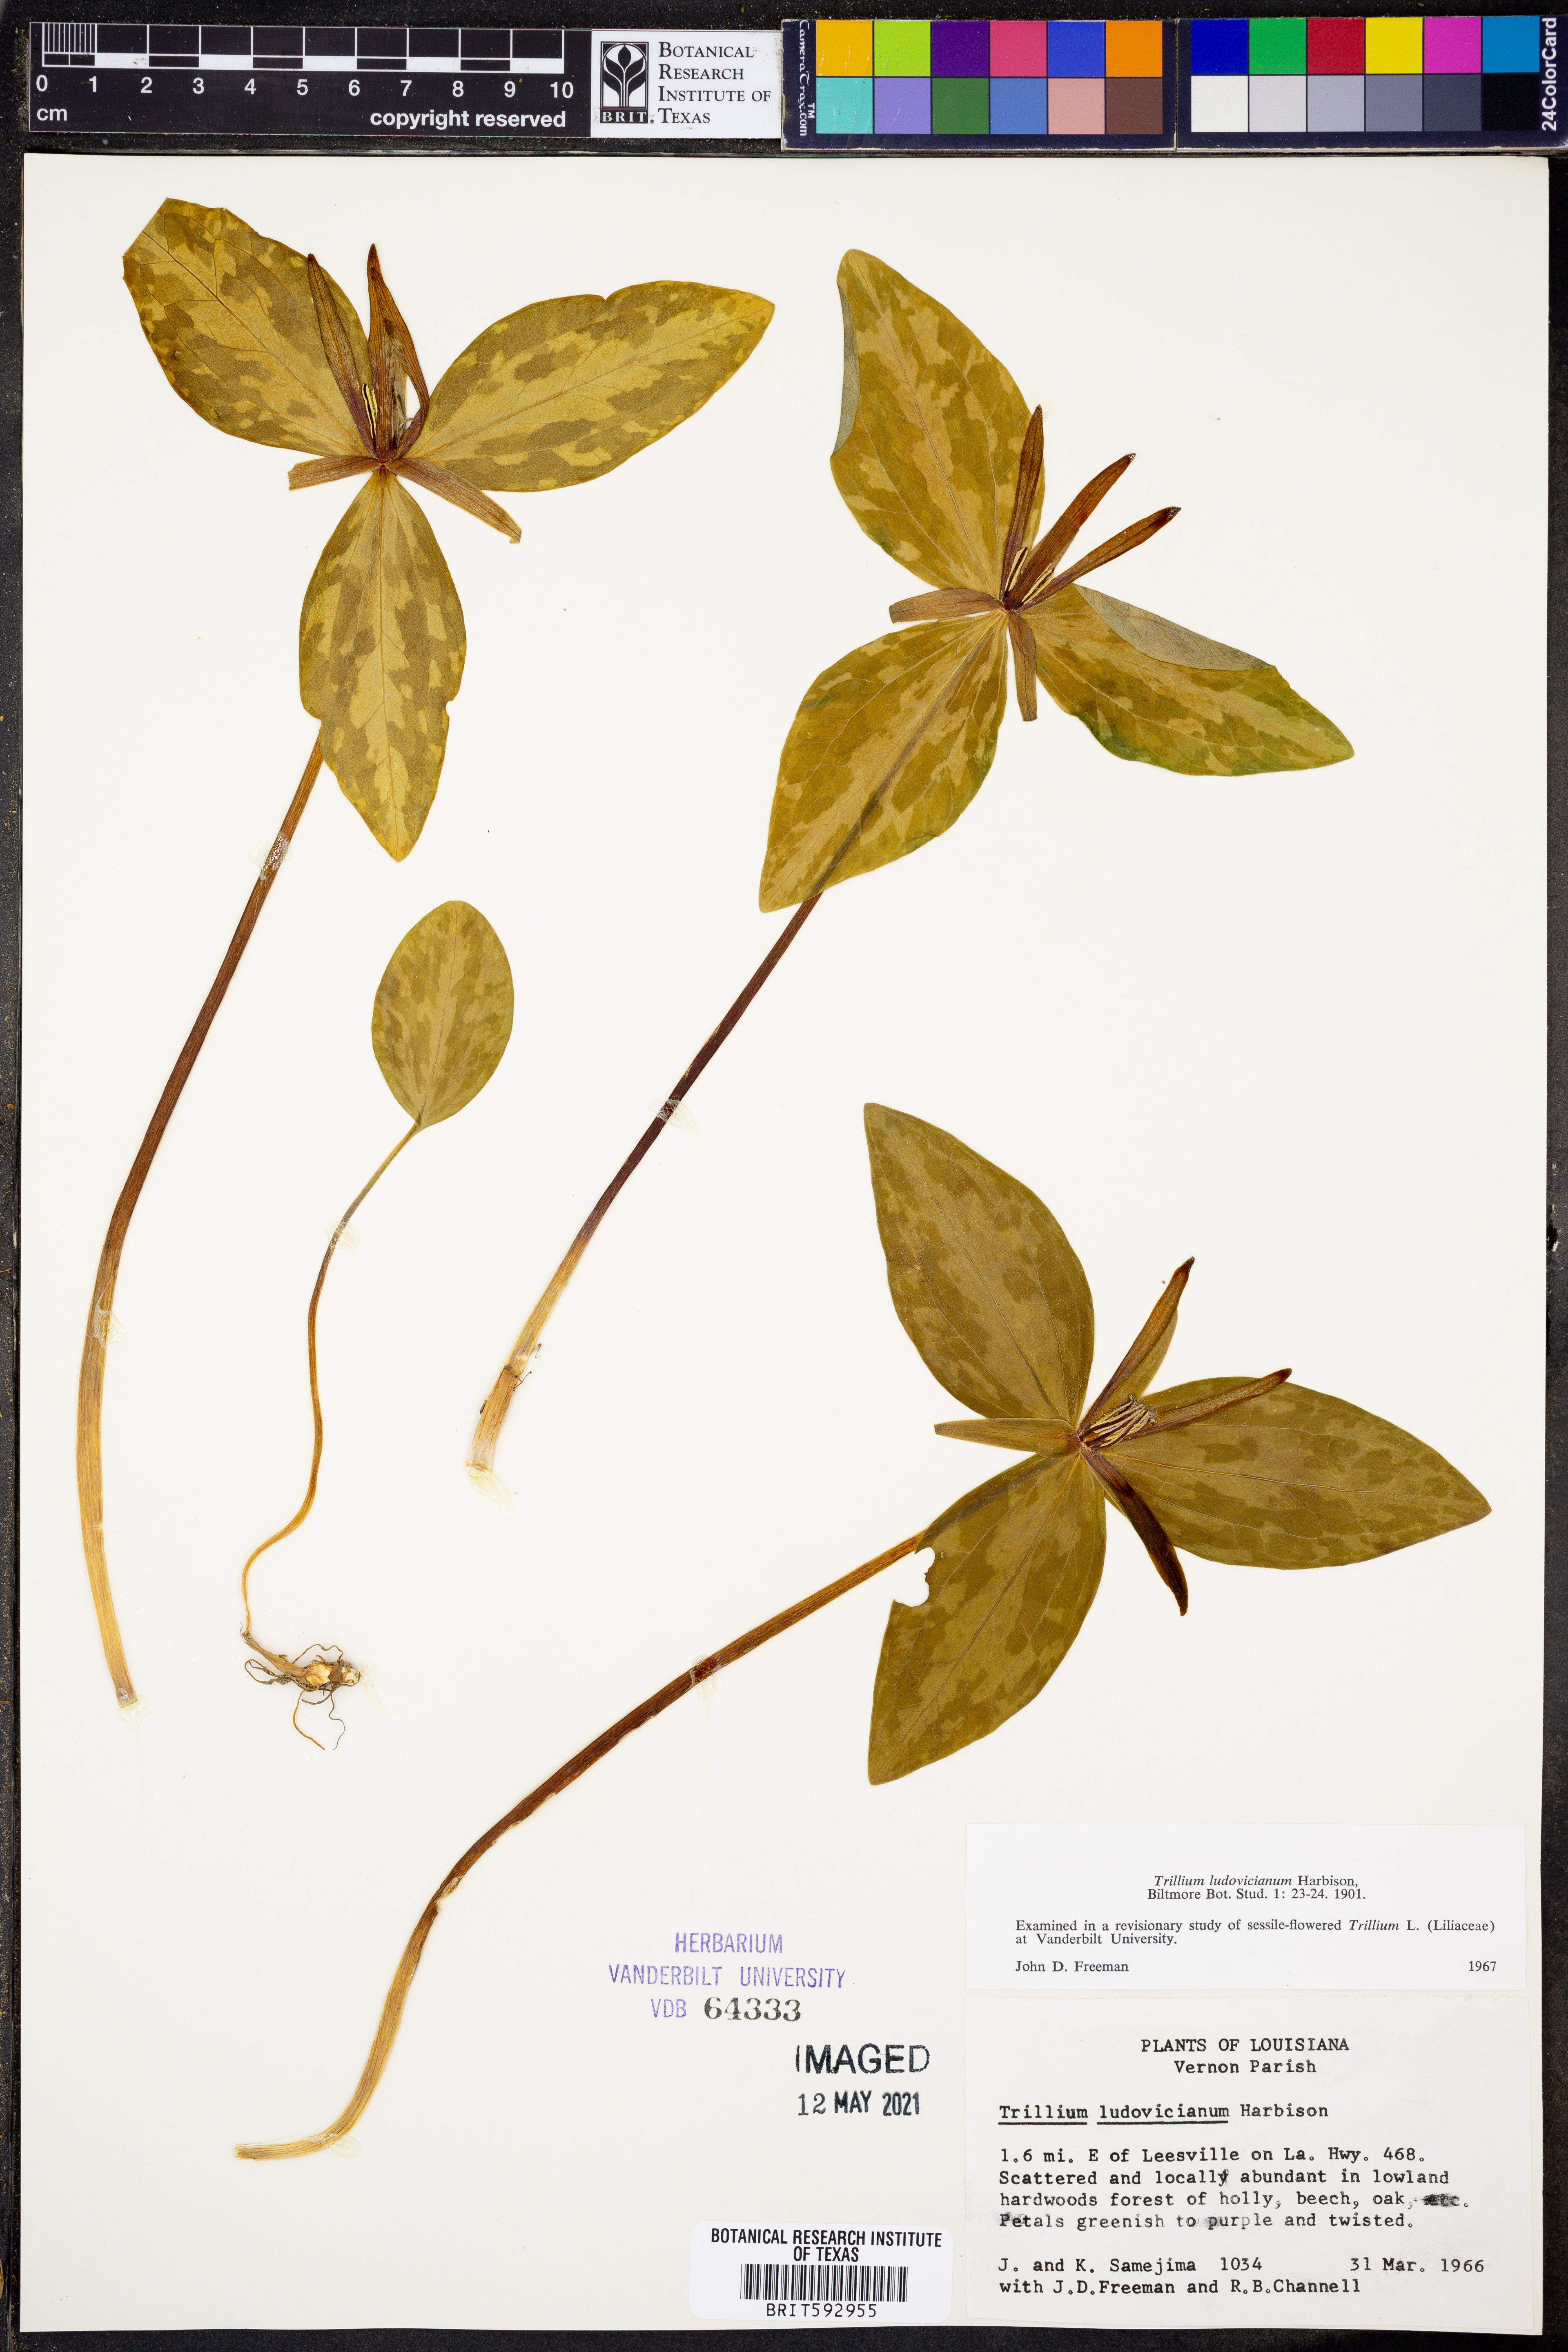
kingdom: Plantae
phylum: Tracheophyta
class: Liliopsida
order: Liliales
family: Melanthiaceae
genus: Trillium
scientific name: Trillium ludovicianum
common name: Louisiana toadshade
